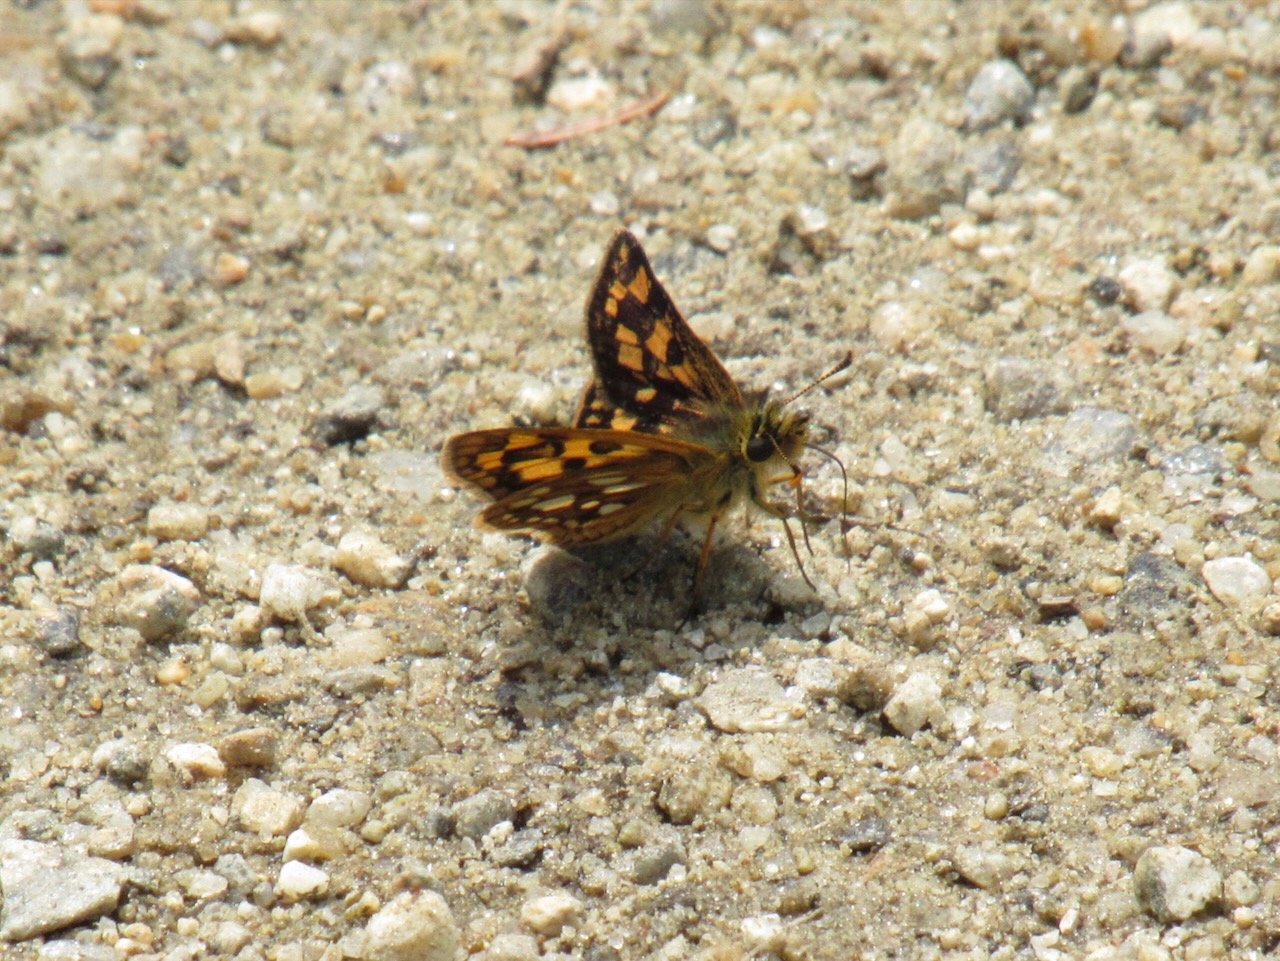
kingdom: Animalia
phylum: Arthropoda
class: Insecta
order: Lepidoptera
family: Hesperiidae
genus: Carterocephalus
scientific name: Carterocephalus palaemon
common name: Chequered Skipper
